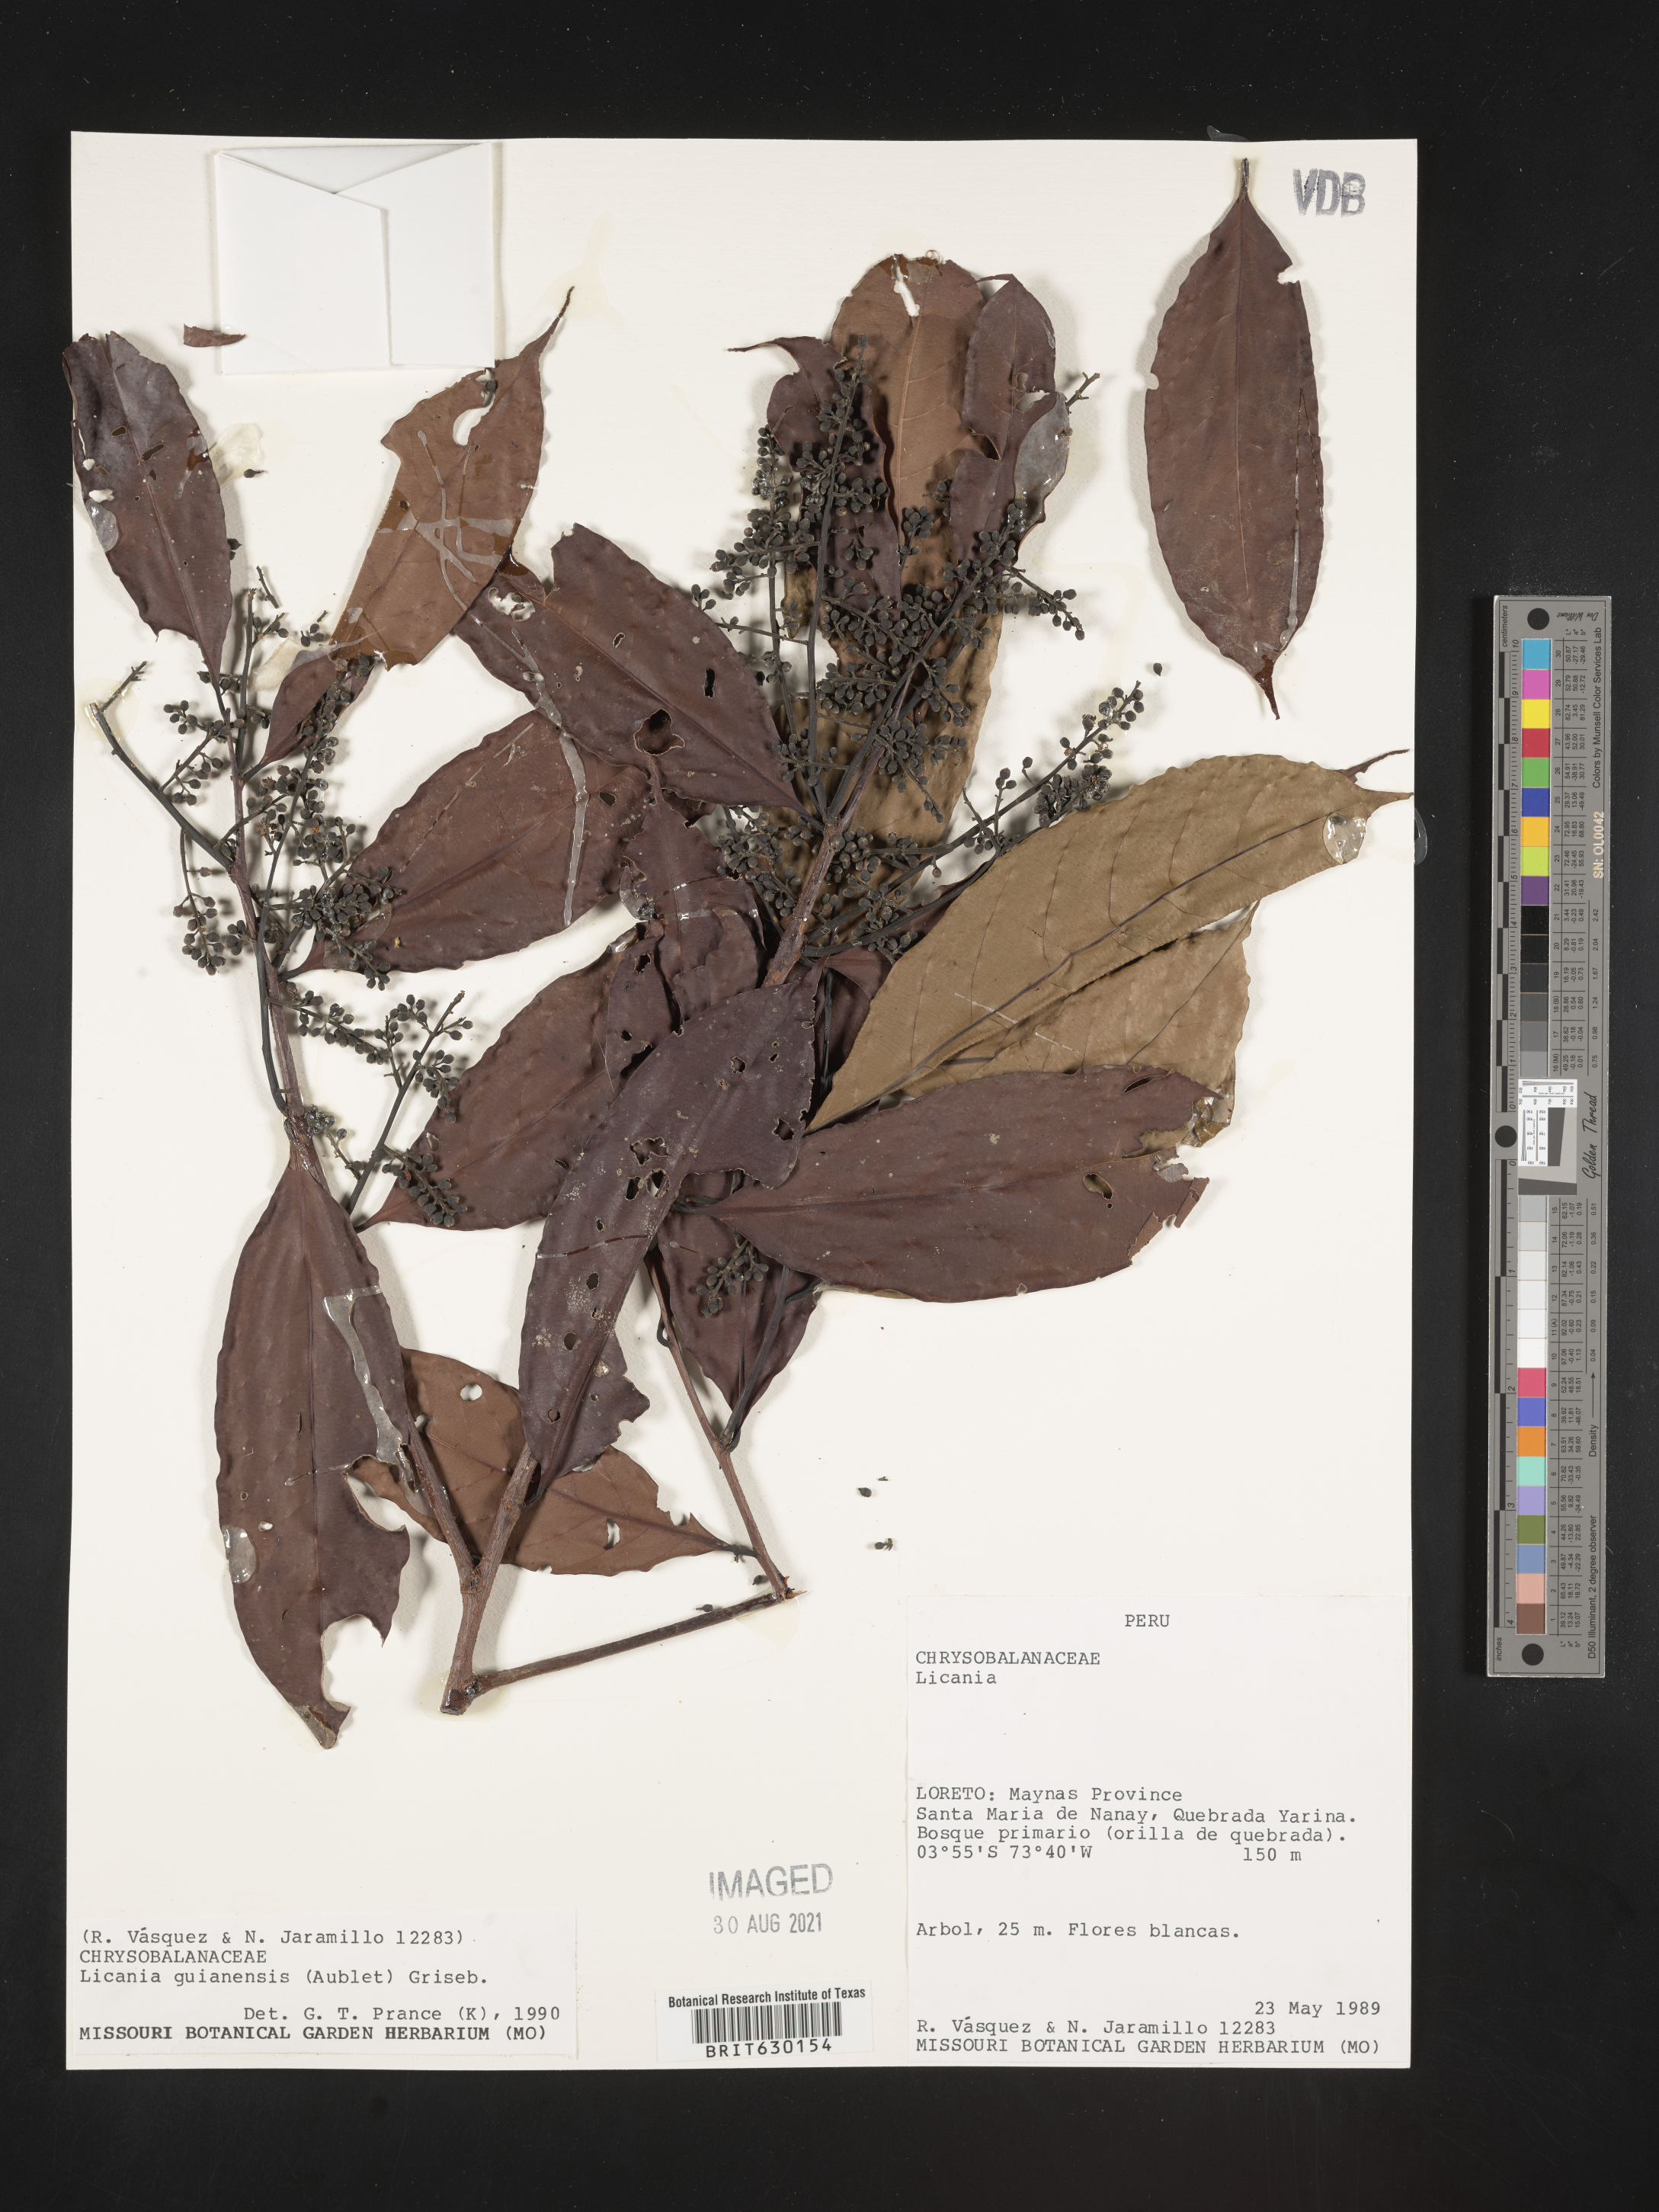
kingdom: Plantae
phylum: Tracheophyta
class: Magnoliopsida
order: Malpighiales
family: Chrysobalanaceae
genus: Moquilea
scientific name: Moquilea guianensis
